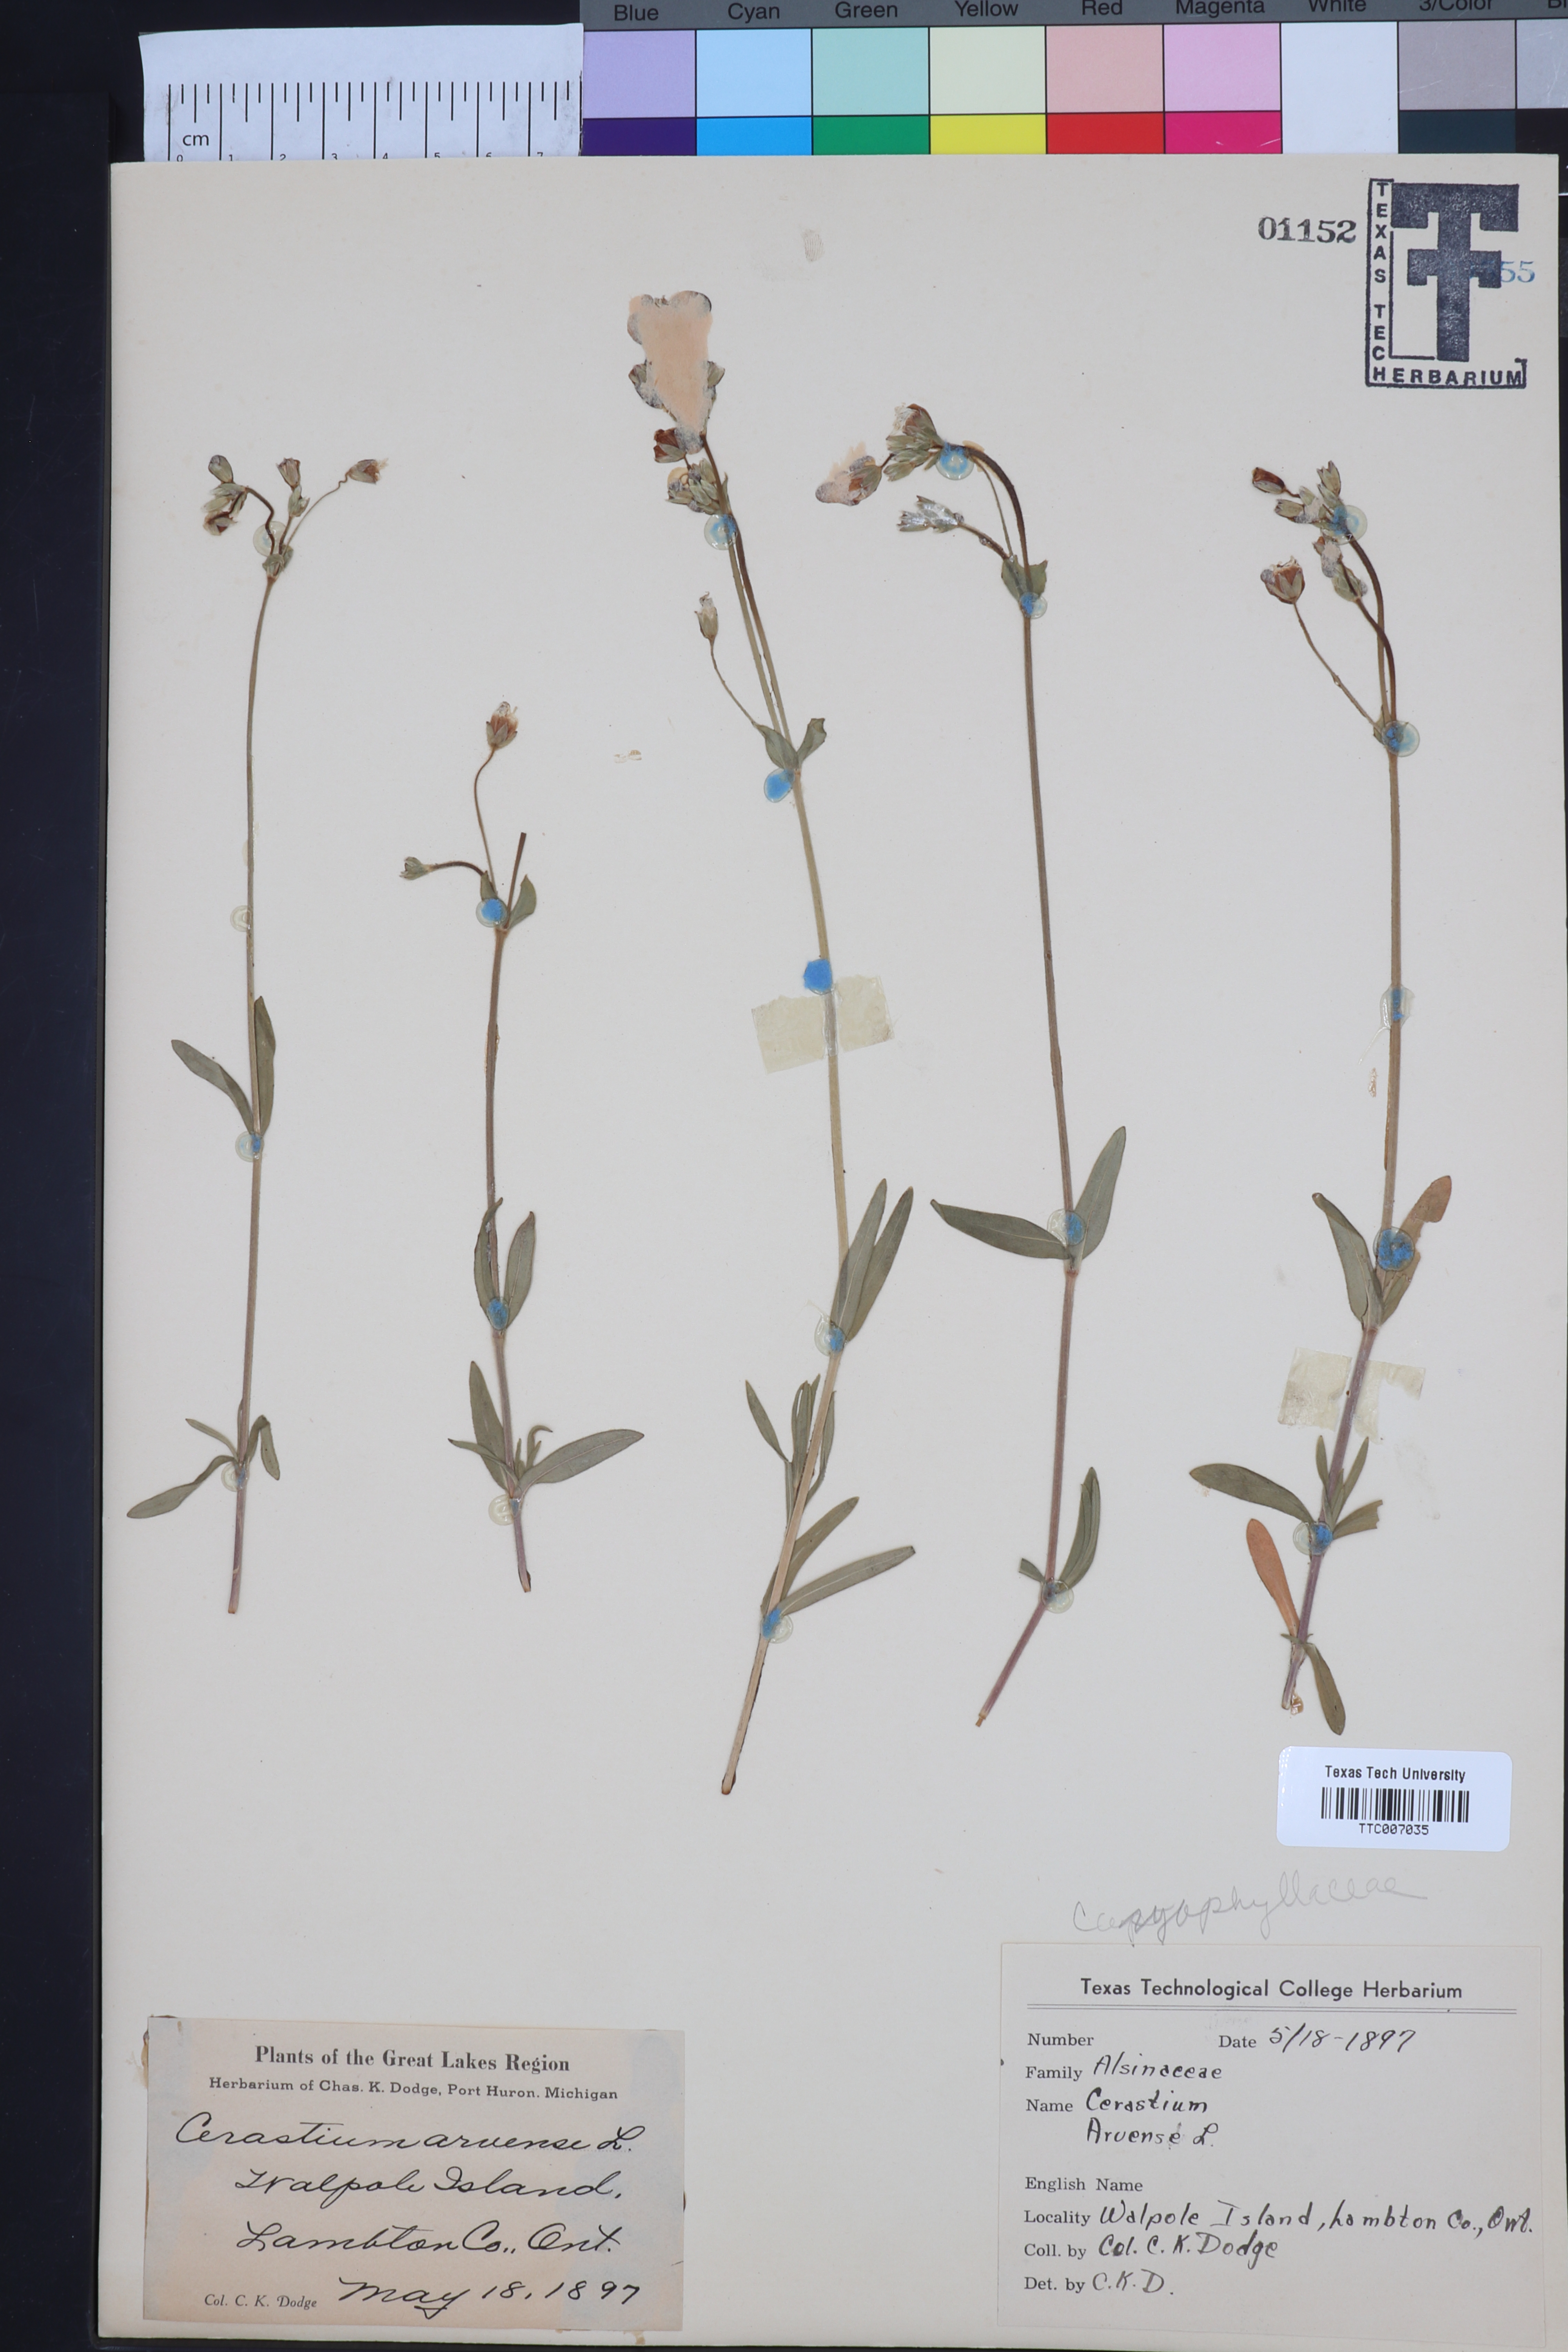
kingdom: Plantae
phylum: Tracheophyta
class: Magnoliopsida
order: Caryophyllales
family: Caryophyllaceae
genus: Cerastium
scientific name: Cerastium arvense
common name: Field mouse-ear
